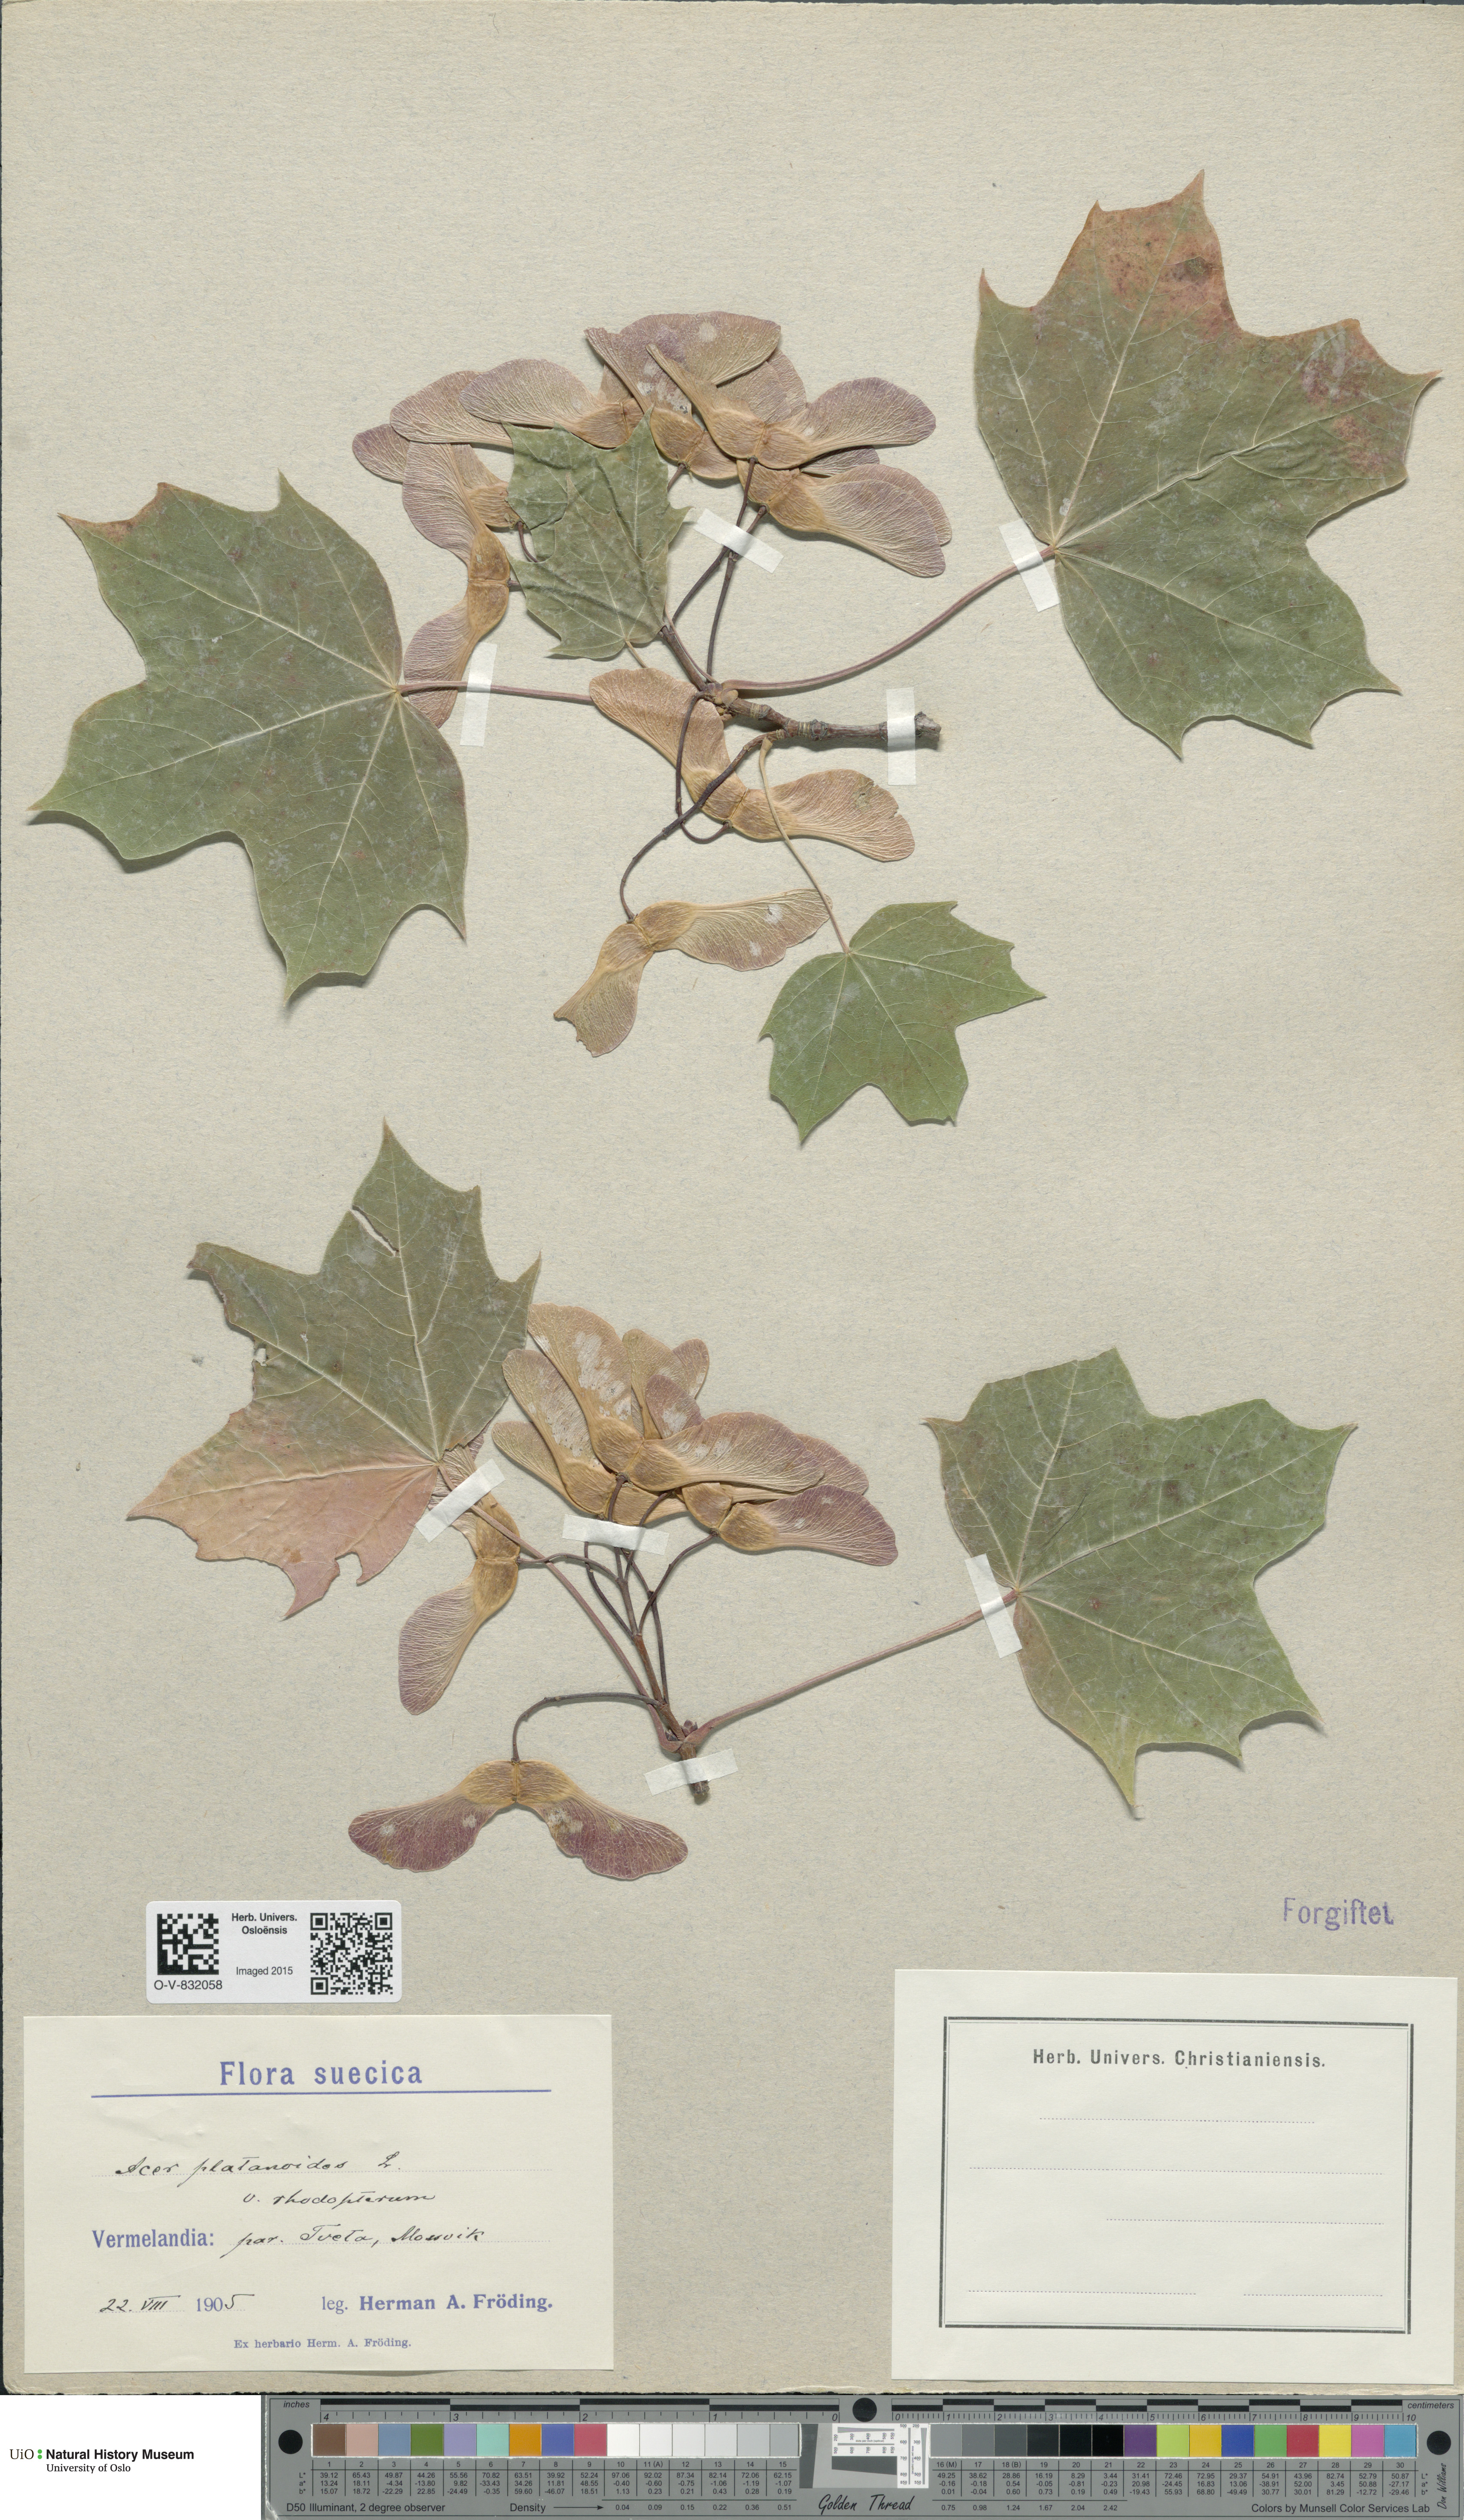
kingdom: Plantae
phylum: Tracheophyta
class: Magnoliopsida
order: Sapindales
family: Sapindaceae
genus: Acer
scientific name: Acer platanoides
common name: Norway maple
